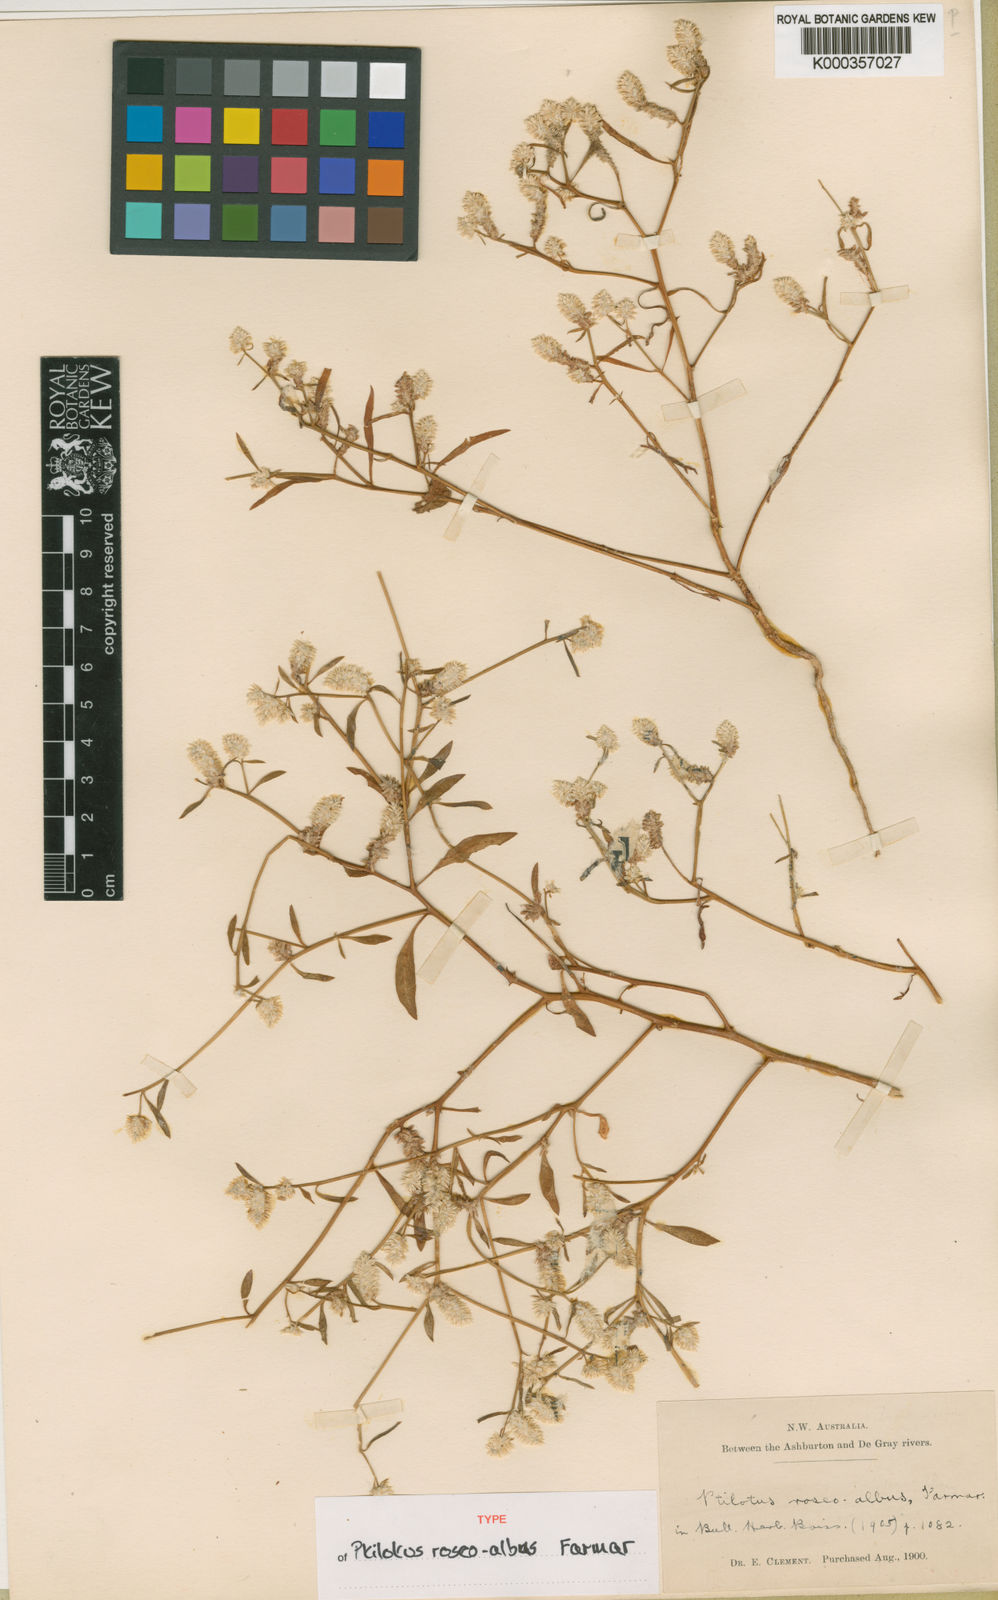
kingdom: Plantae
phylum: Tracheophyta
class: Magnoliopsida
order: Caryophyllales
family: Amaranthaceae
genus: Ptilotus
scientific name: Ptilotus
